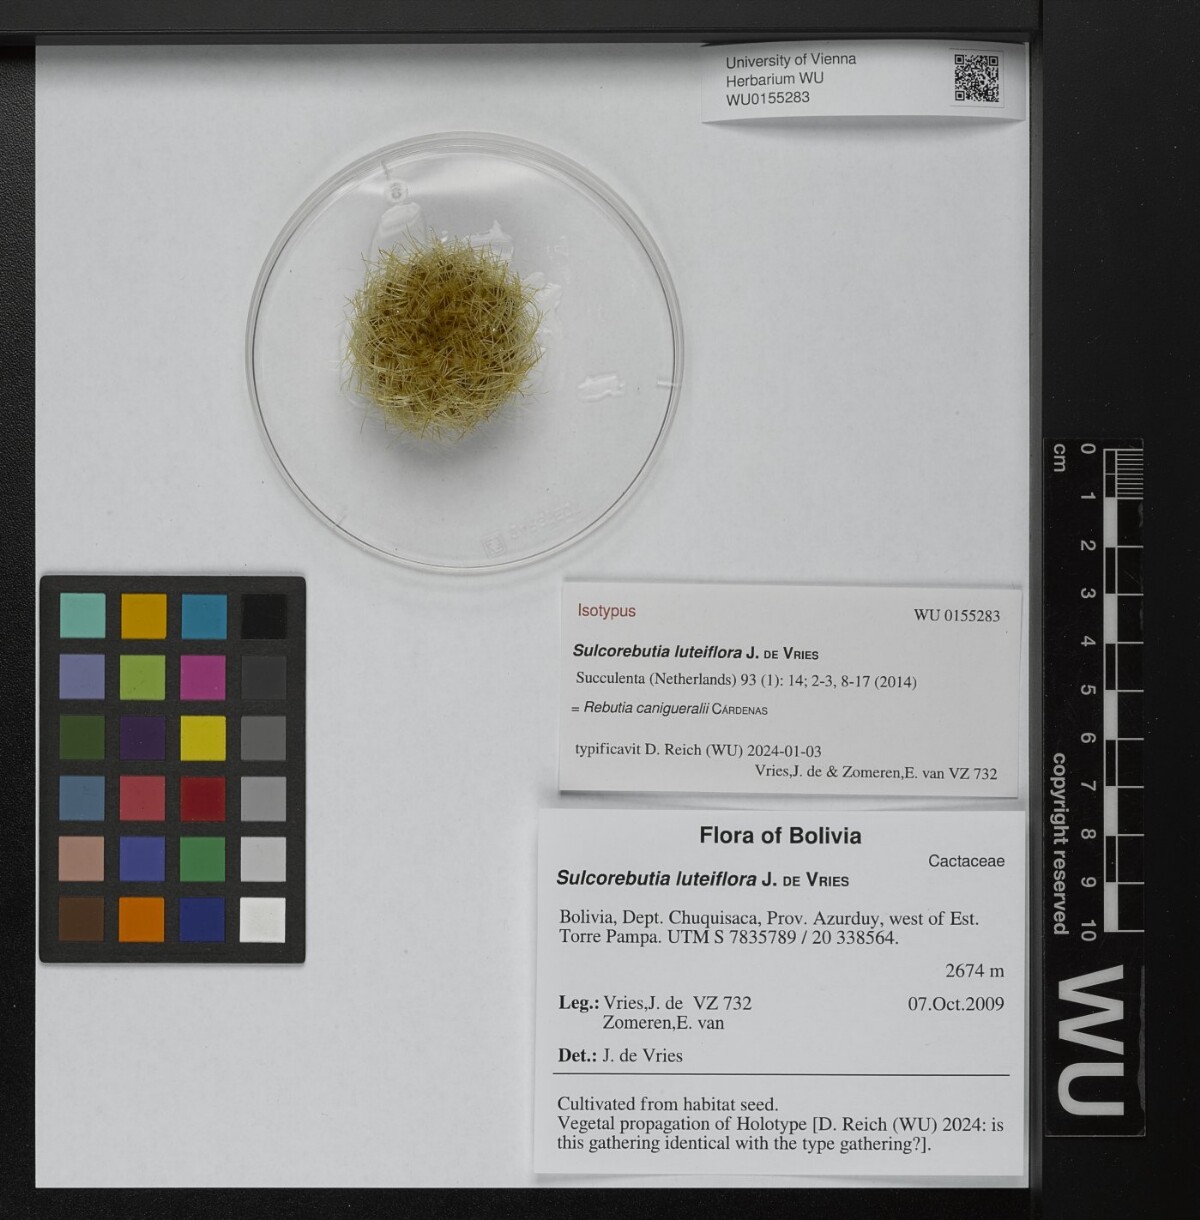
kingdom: Plantae
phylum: Tracheophyta
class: Magnoliopsida
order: Caryophyllales
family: Cactaceae
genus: Weingartia
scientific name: Weingartia canigueralii
